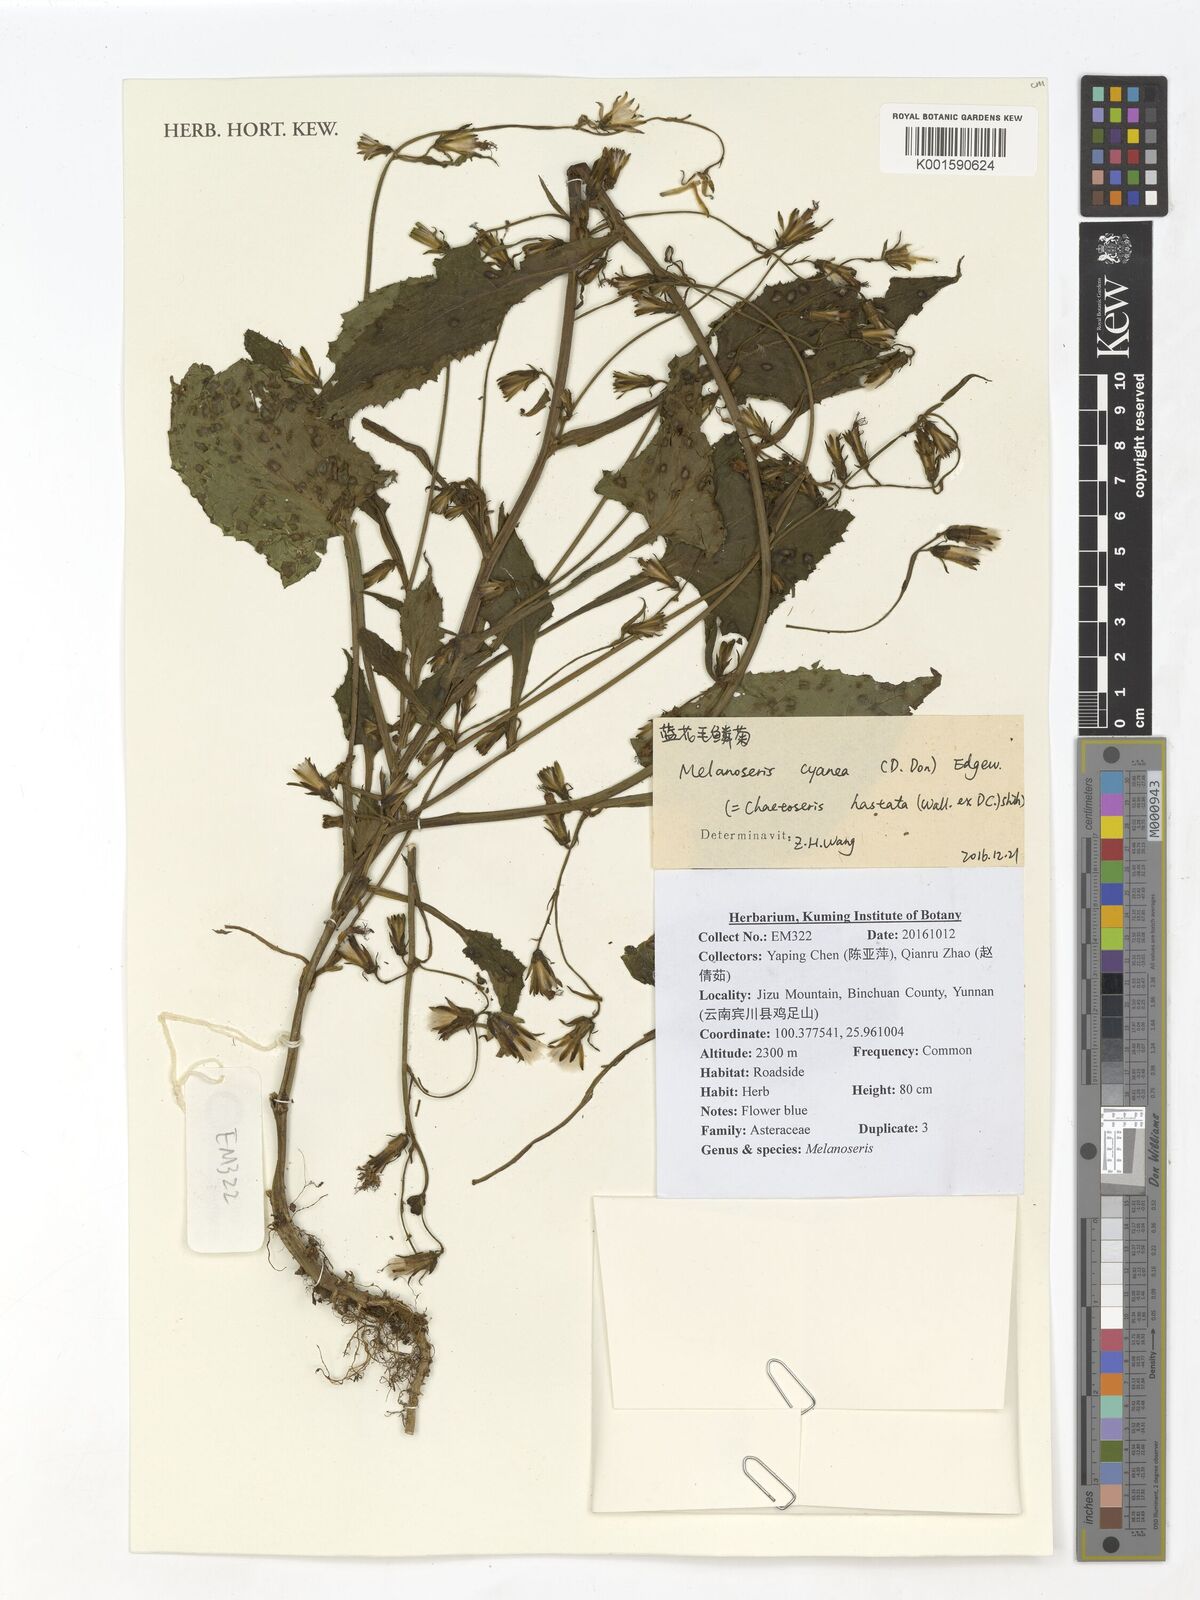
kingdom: Plantae
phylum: Tracheophyta
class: Magnoliopsida
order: Asterales
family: Asteraceae
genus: Melanoseris
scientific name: Melanoseris cyanea
